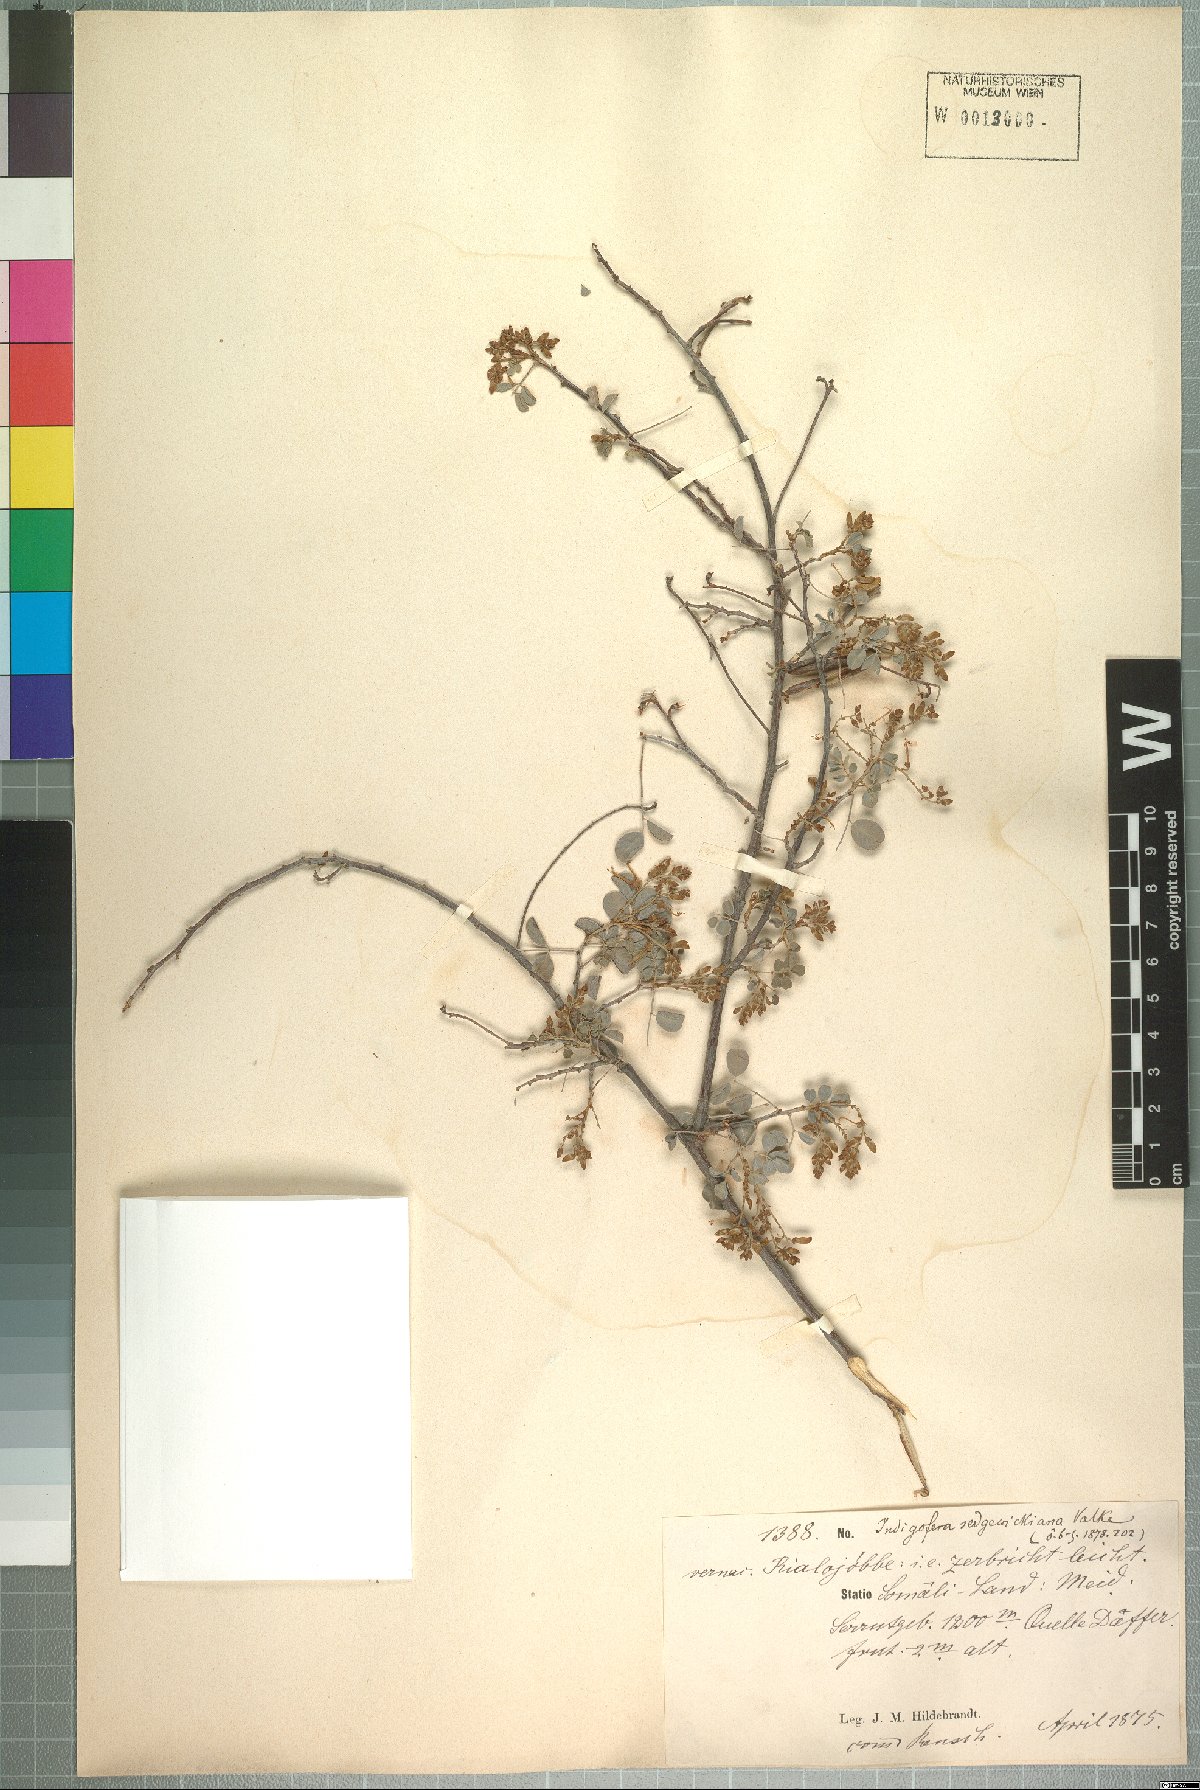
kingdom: Plantae
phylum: Tracheophyta
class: Magnoliopsida
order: Fabales
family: Fabaceae
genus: Indigofera
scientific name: Indigofera sedgewickiana
